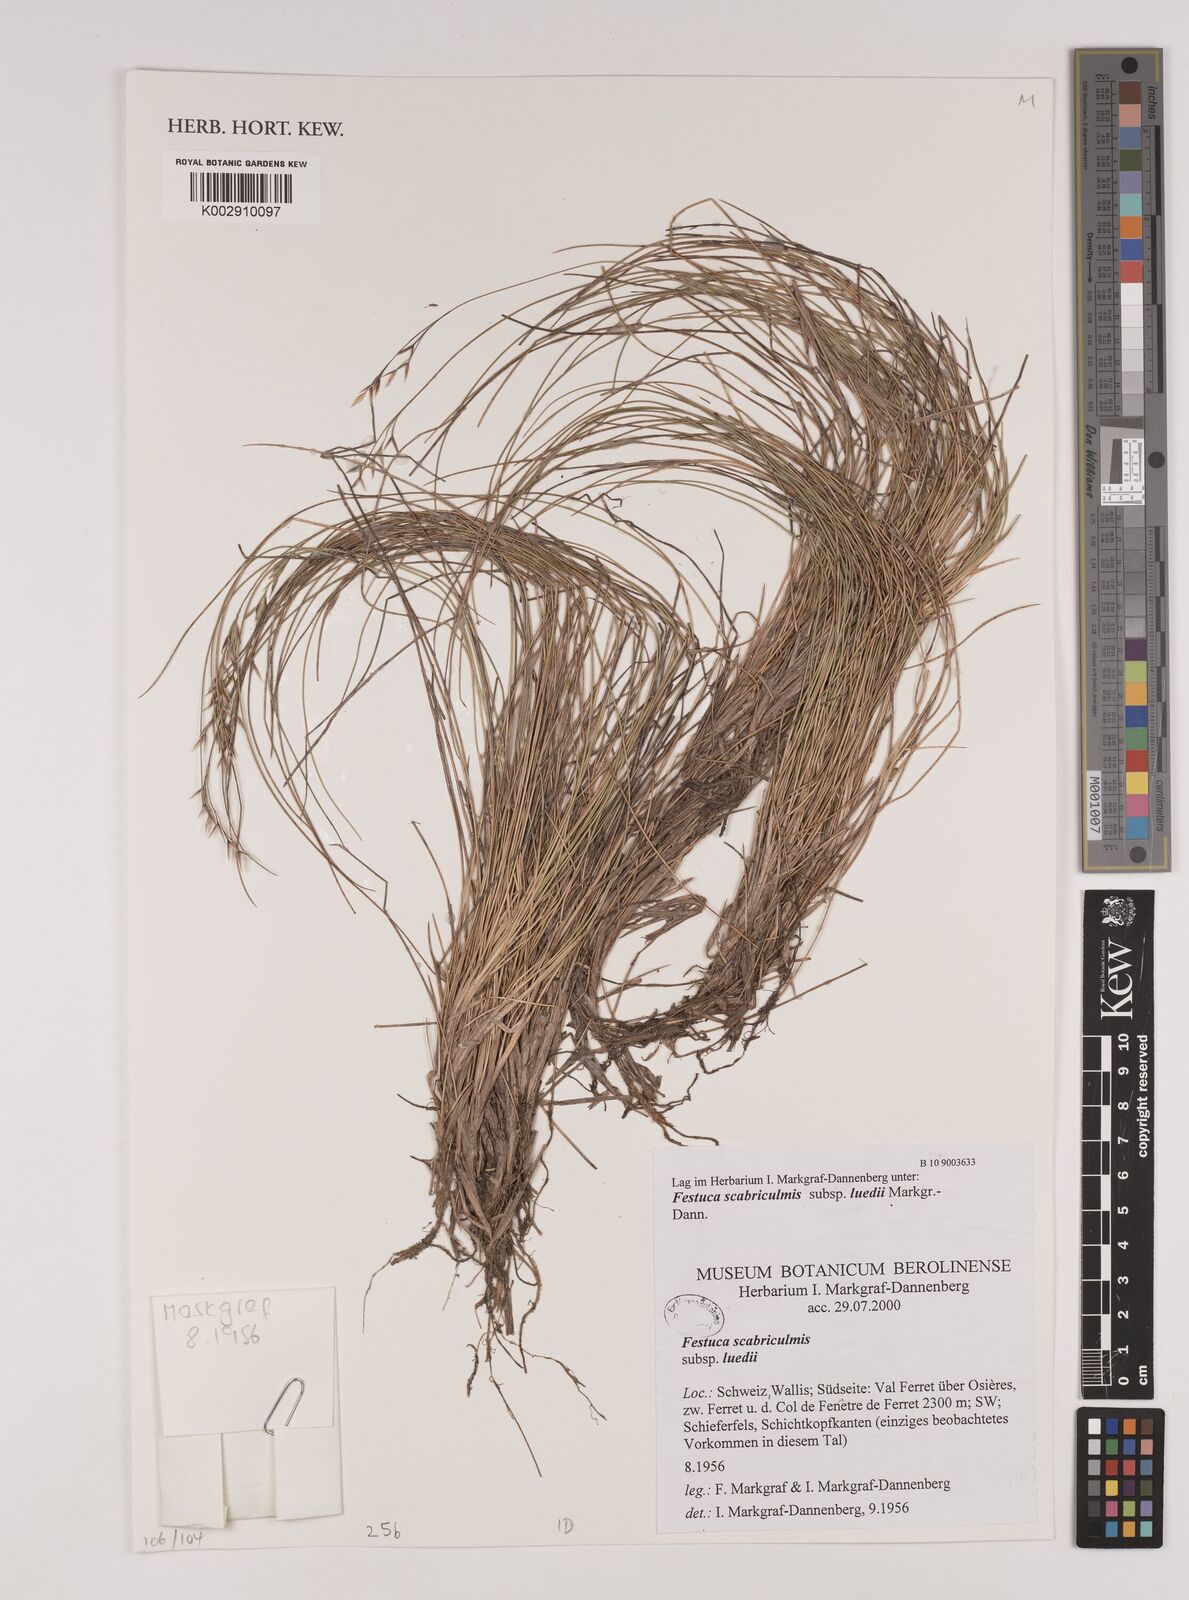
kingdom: Plantae
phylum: Tracheophyta
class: Liliopsida
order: Poales
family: Poaceae
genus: Festuca
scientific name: Festuca scabriculmis
